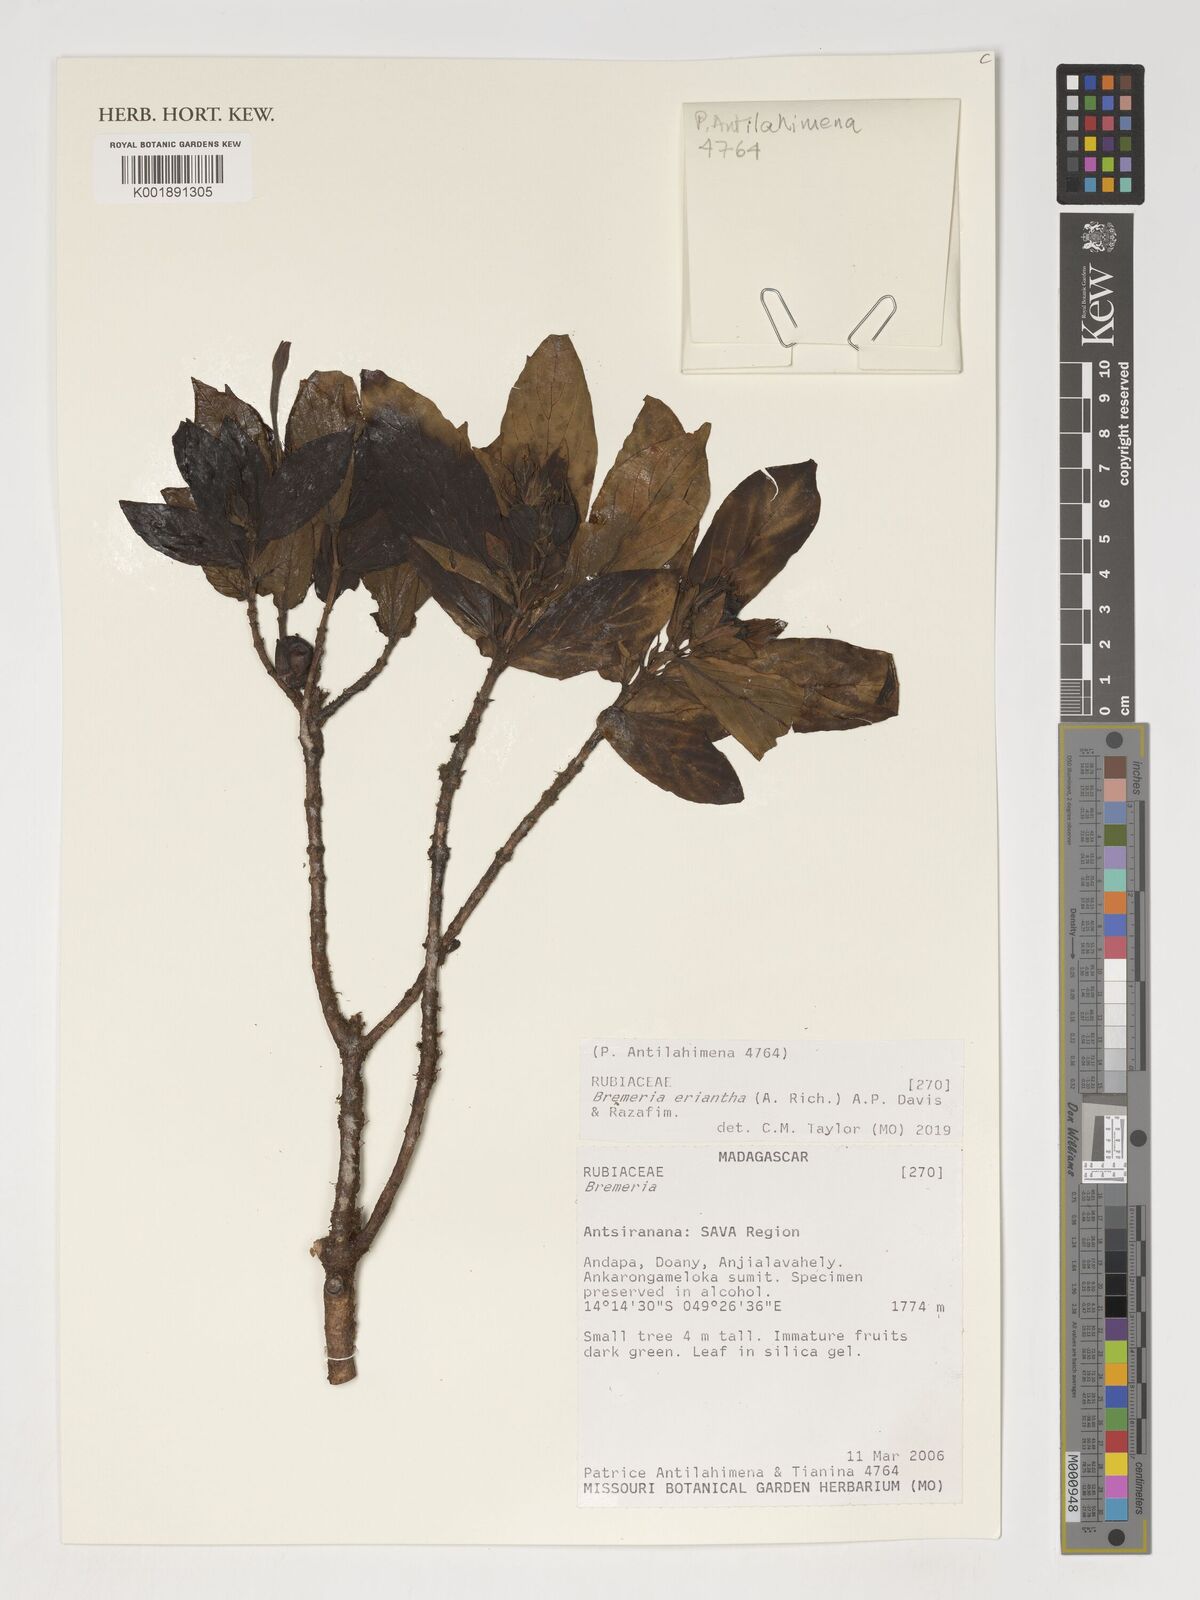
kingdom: Plantae
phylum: Tracheophyta
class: Magnoliopsida
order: Gentianales
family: Rubiaceae
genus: Bremeria
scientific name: Bremeria eriantha
